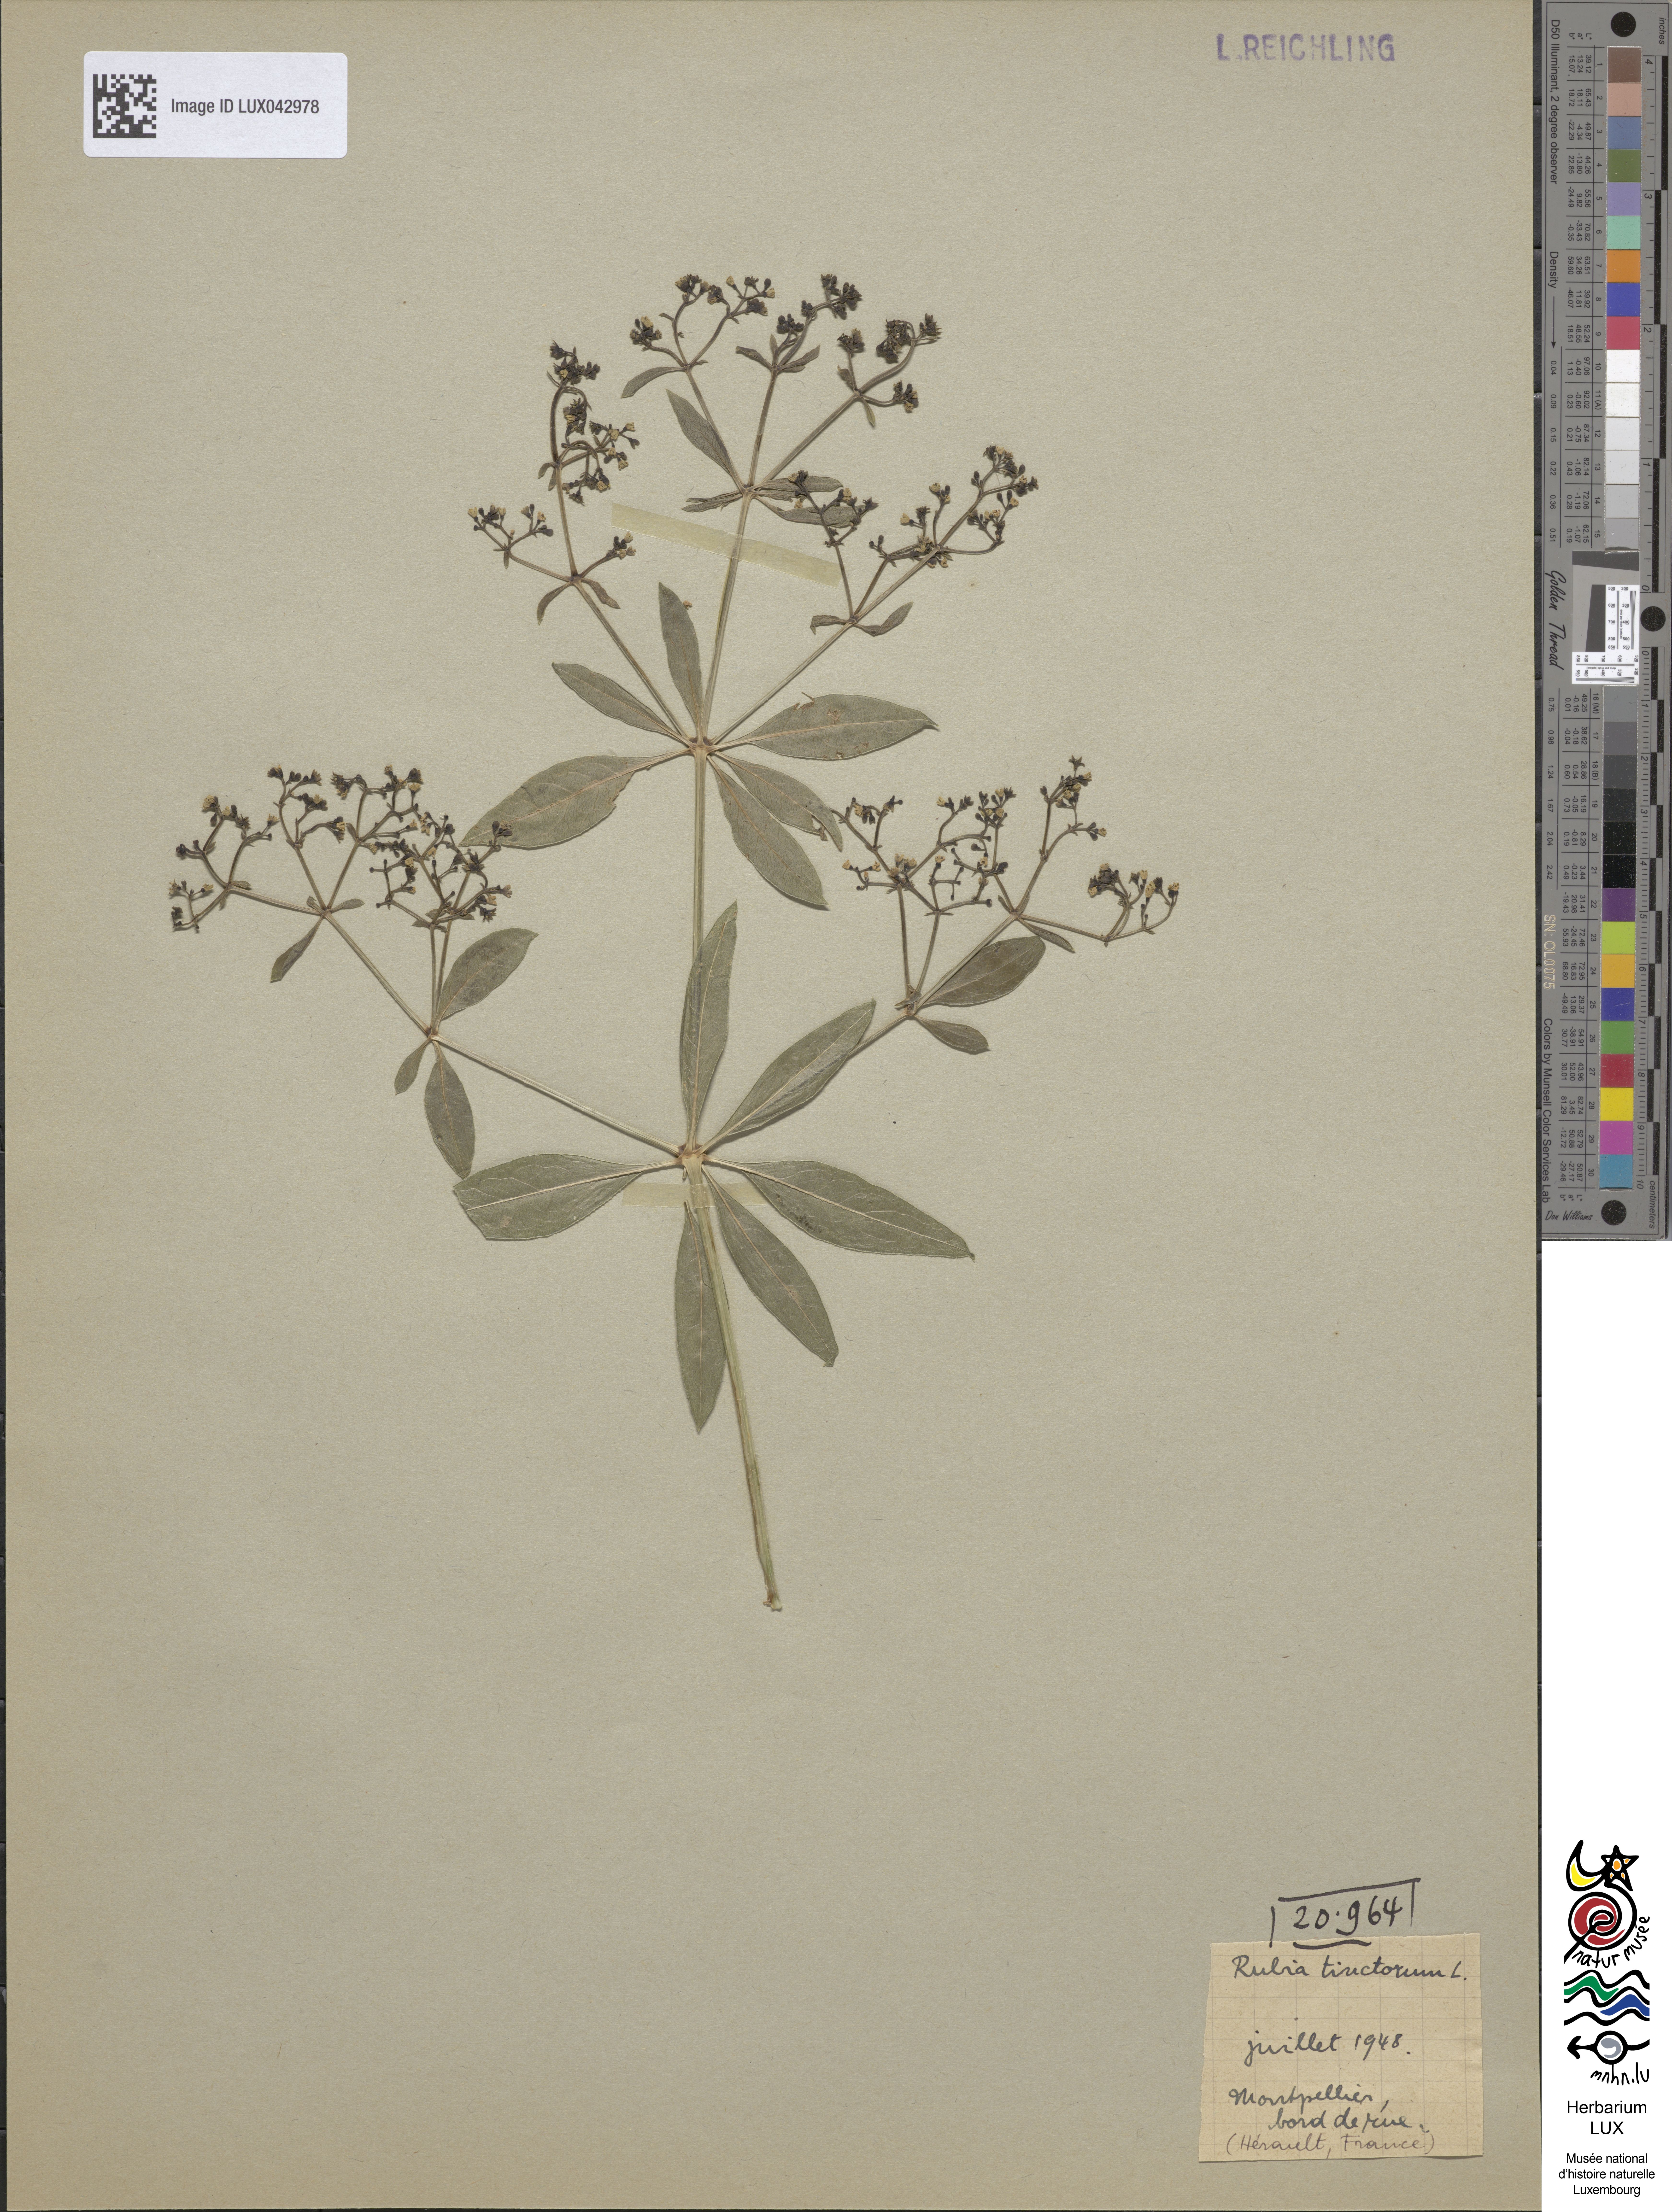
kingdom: Plantae
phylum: Tracheophyta
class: Magnoliopsida
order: Gentianales
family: Rubiaceae
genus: Rubia
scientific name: Rubia tinctorum
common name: Dyer's madder
